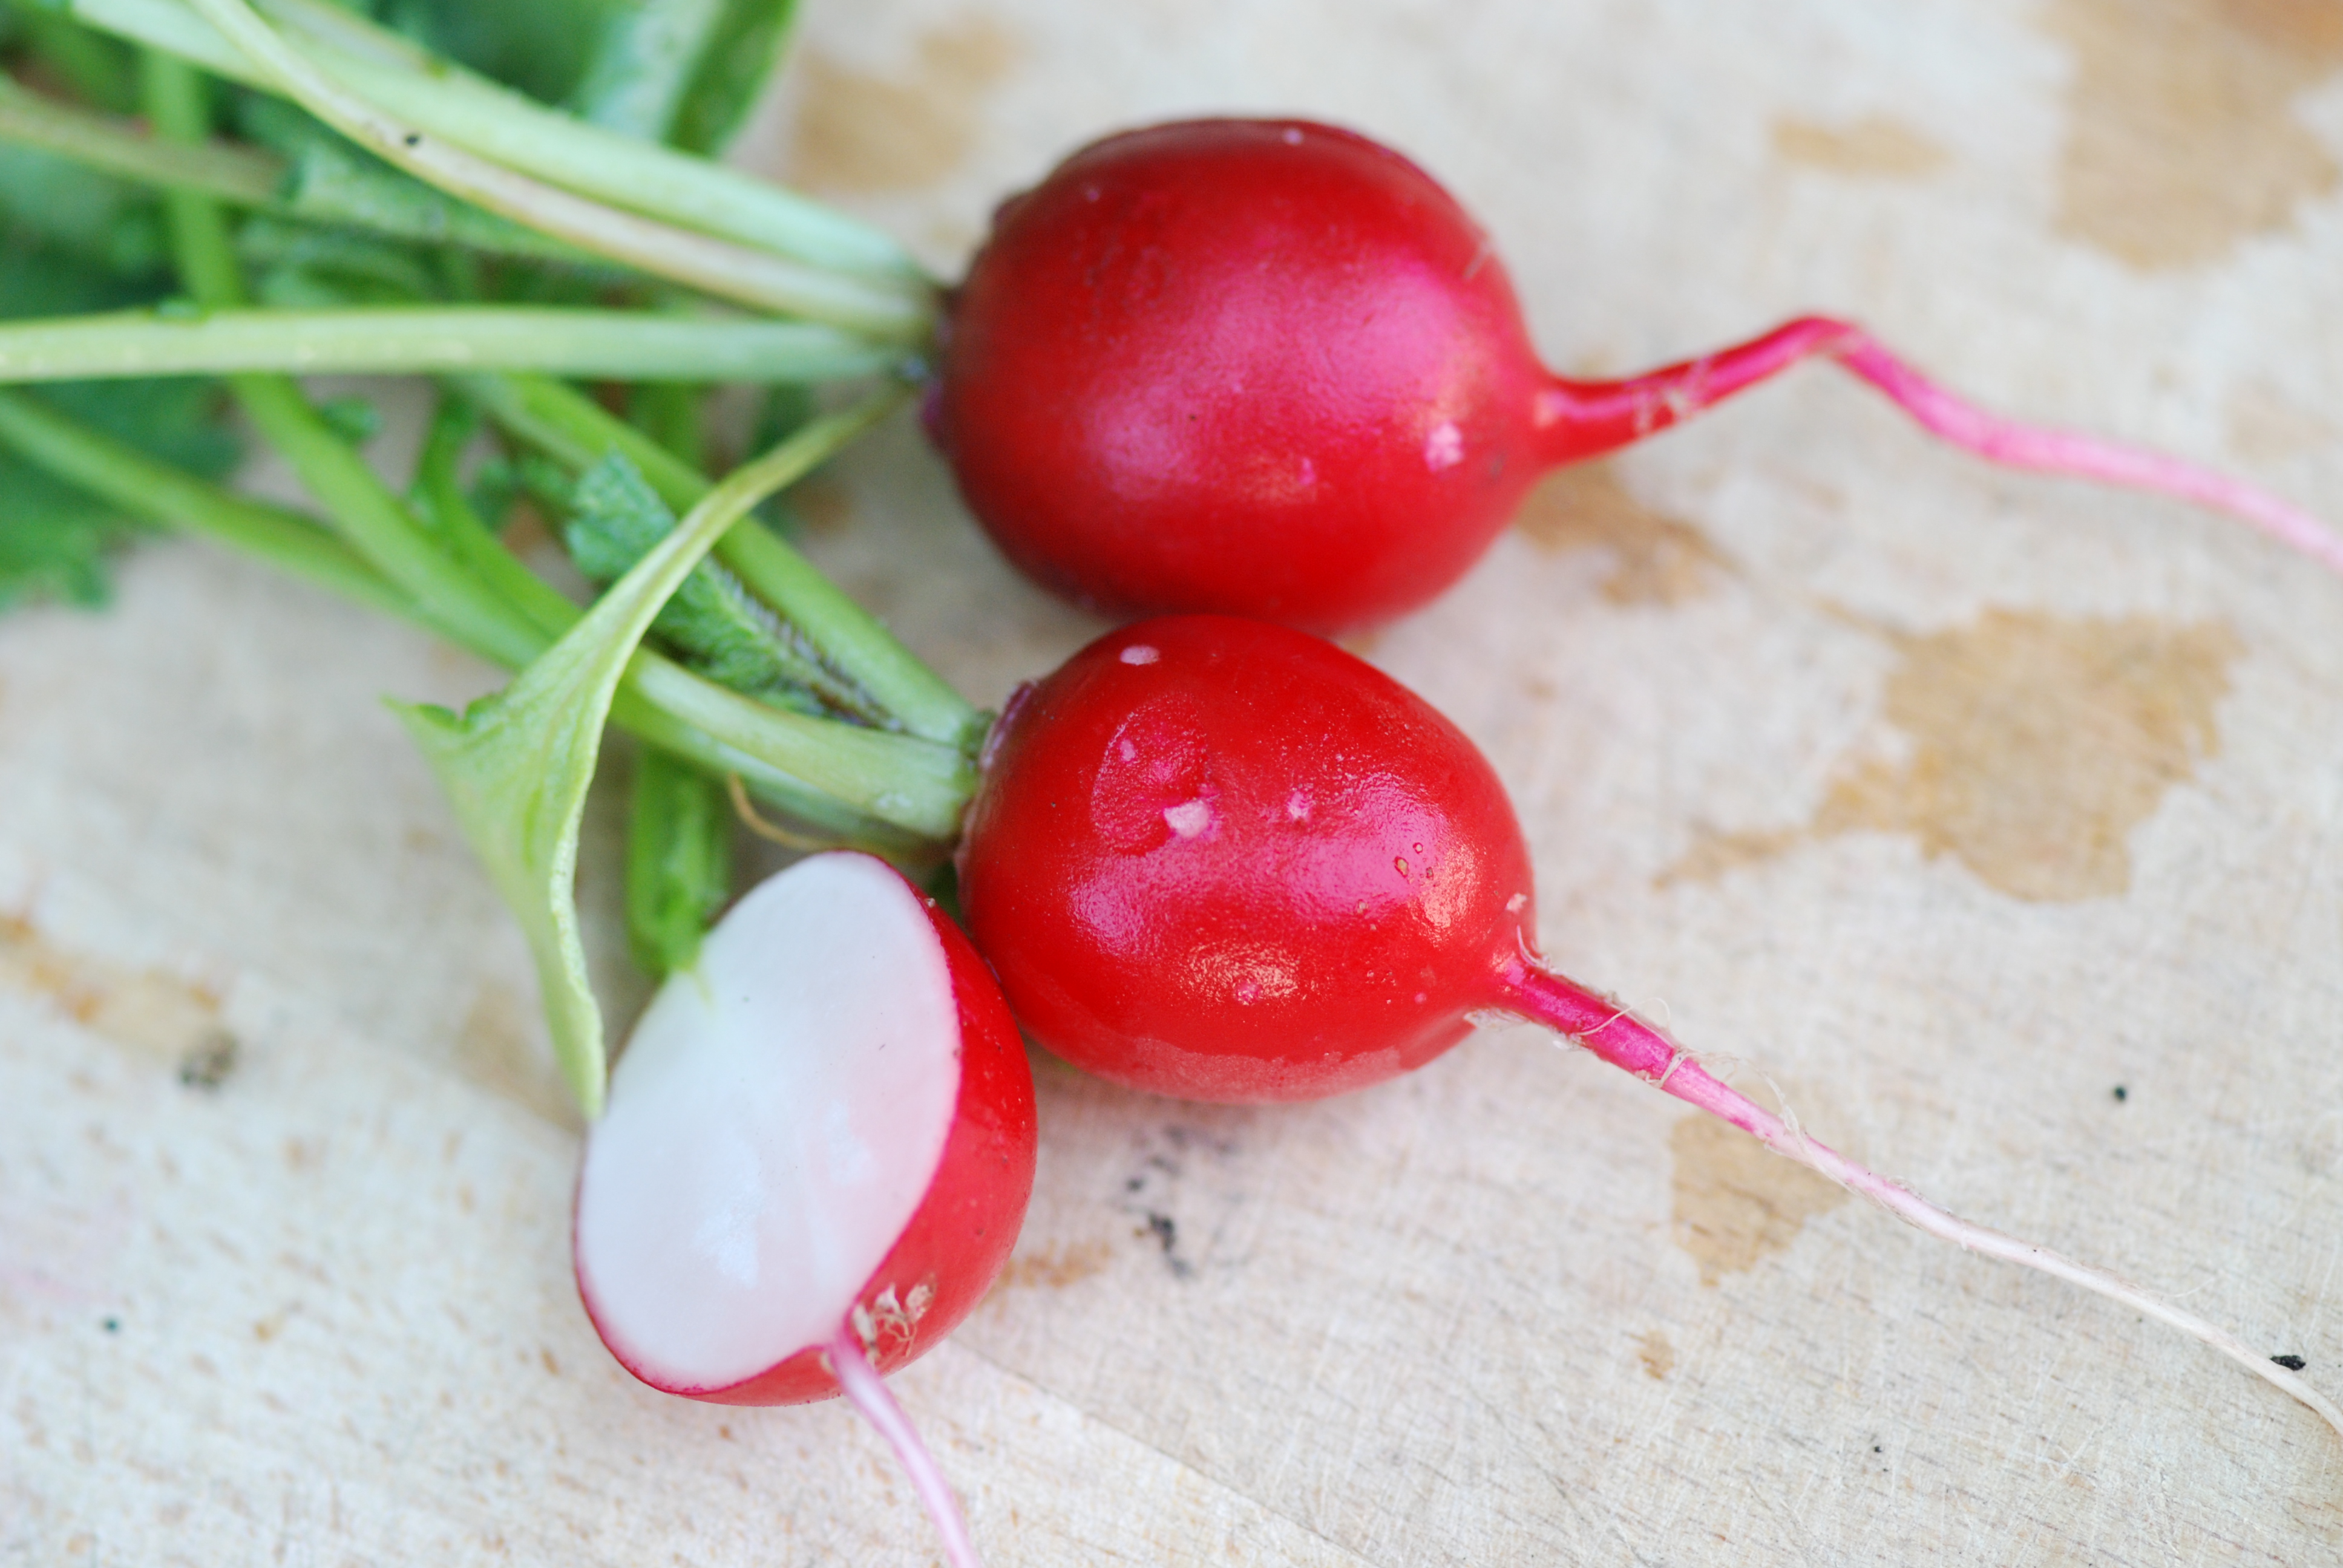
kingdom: Plantae
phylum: Tracheophyta
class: Magnoliopsida
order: Brassicales
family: Brassicaceae
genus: Raphanus
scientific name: Raphanus sativus
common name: Cultivated radish
